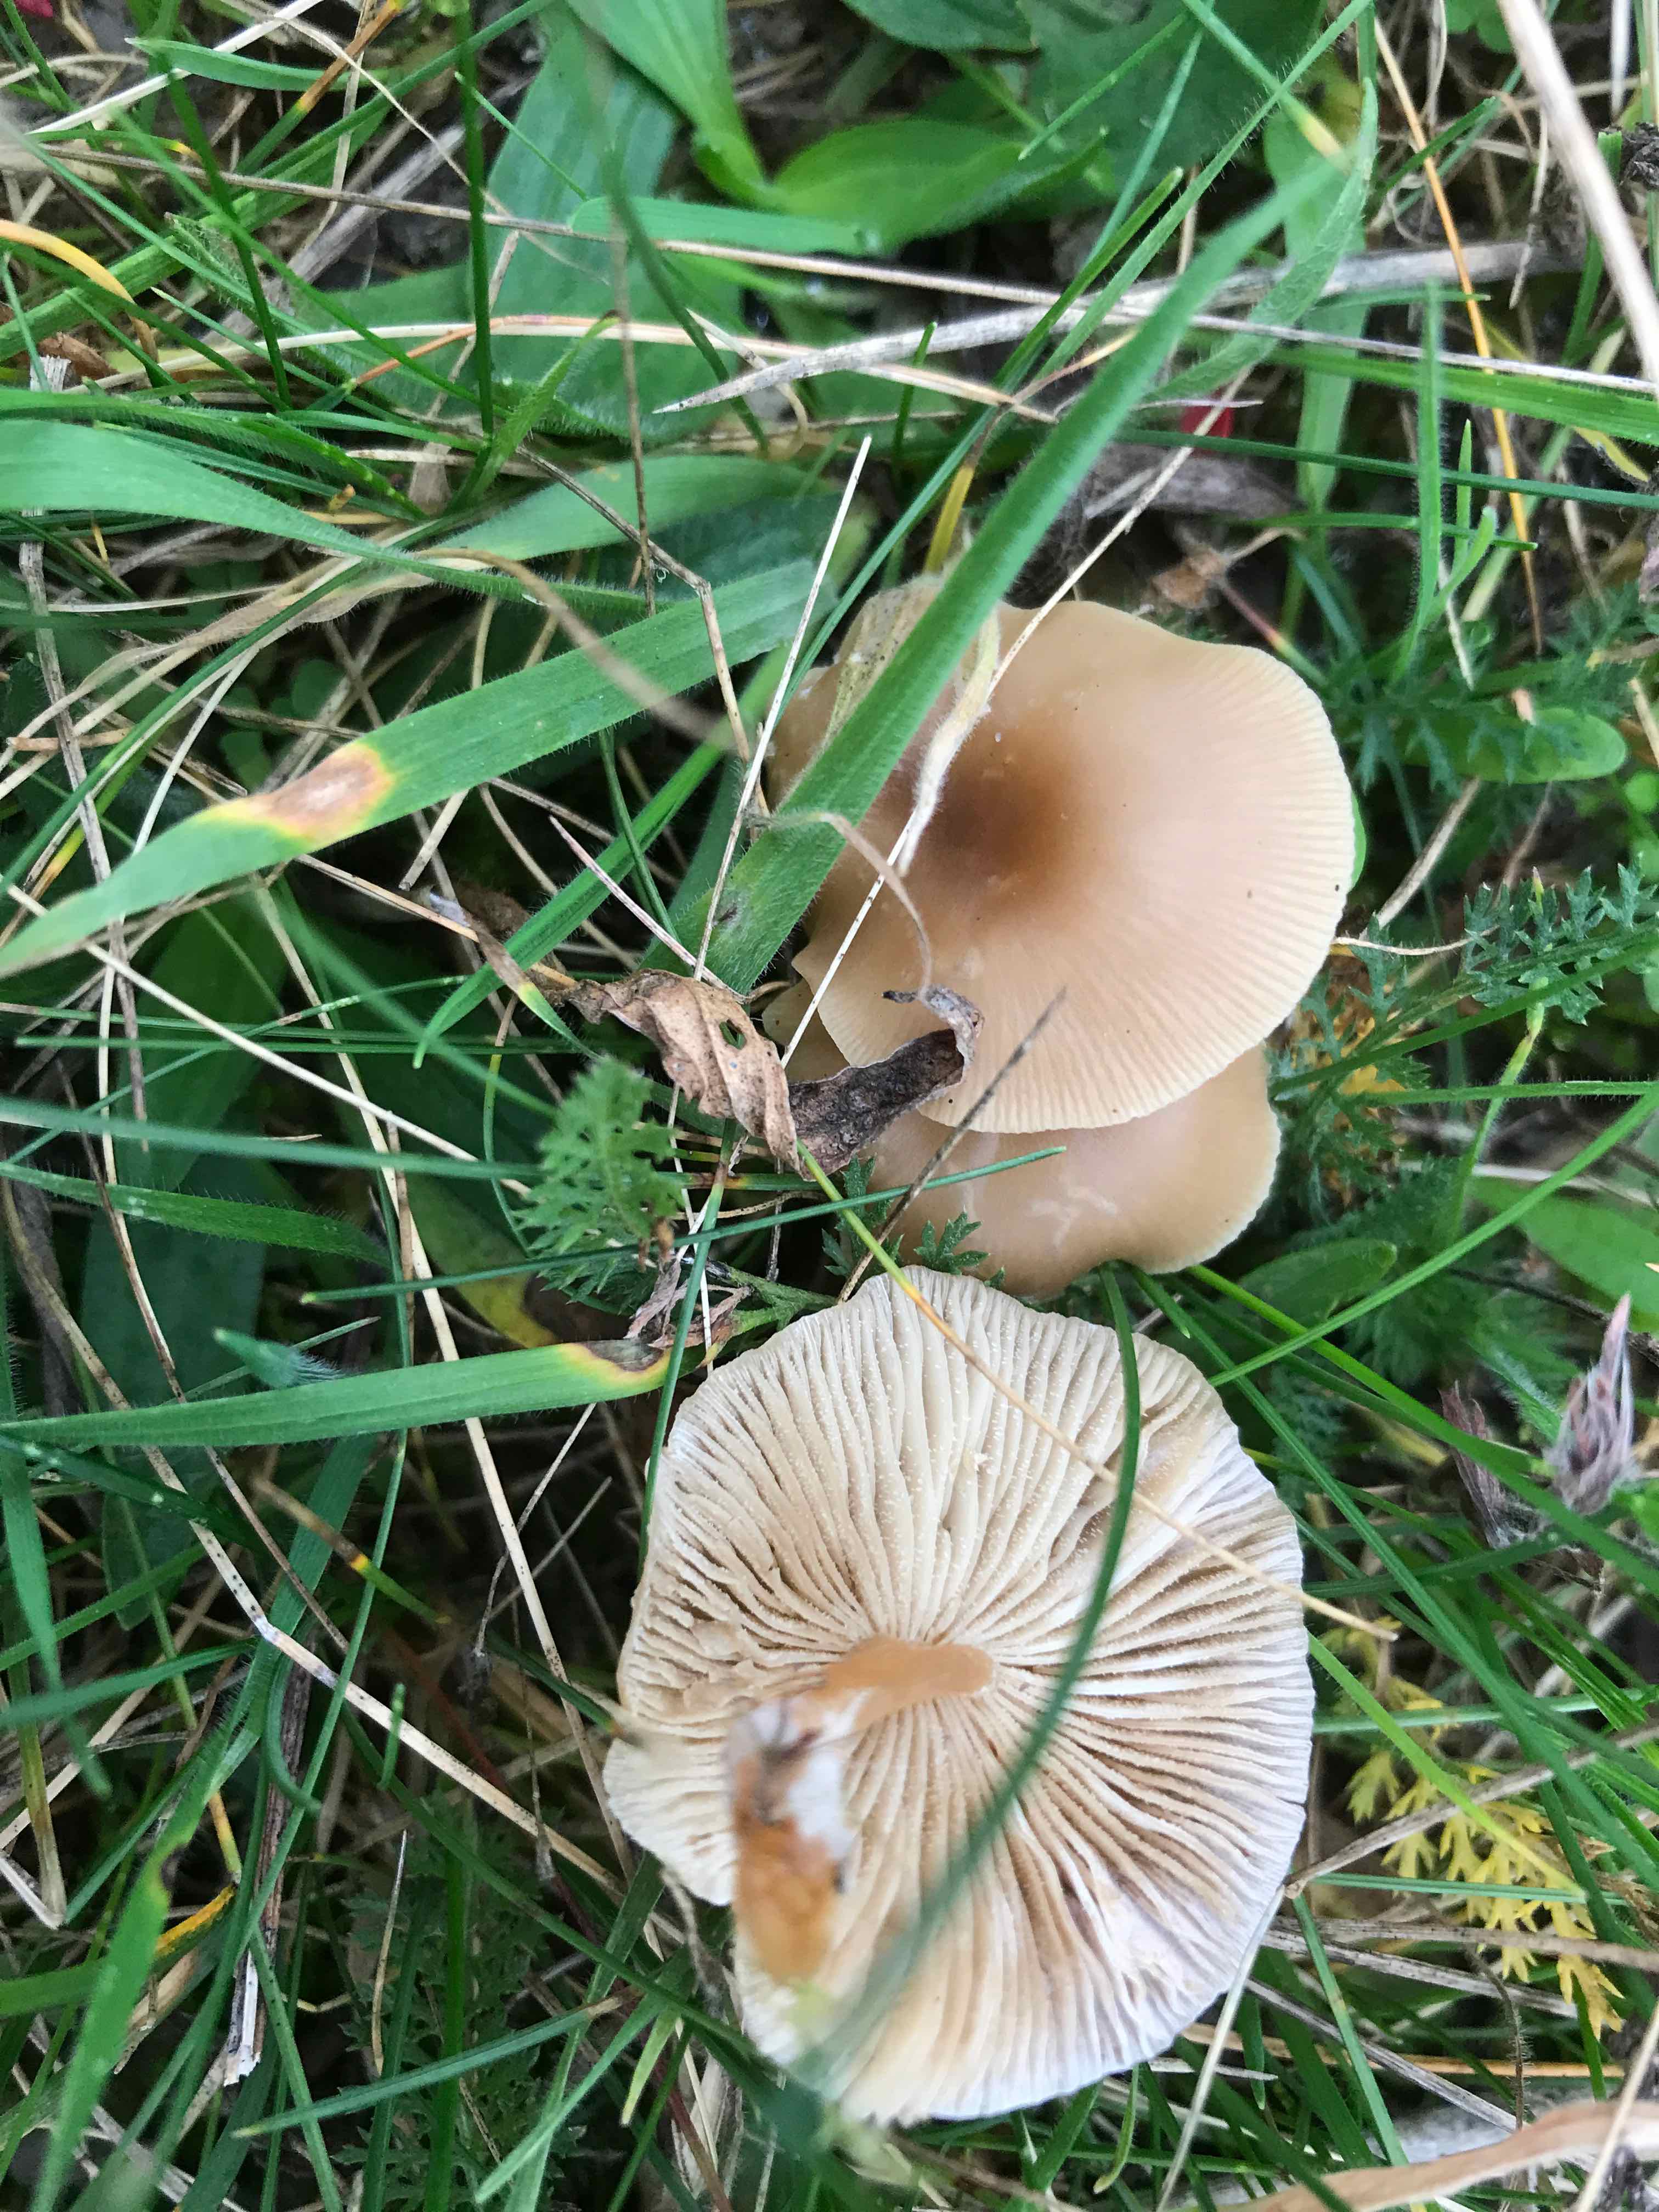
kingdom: Fungi
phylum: Basidiomycota
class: Agaricomycetes
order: Agaricales
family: Tricholomataceae
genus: Clitocybe
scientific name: Clitocybe
